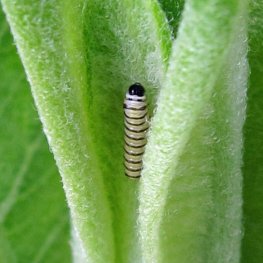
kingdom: Animalia
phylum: Arthropoda
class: Insecta
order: Lepidoptera
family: Nymphalidae
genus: Danaus
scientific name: Danaus plexippus
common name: Monarch
